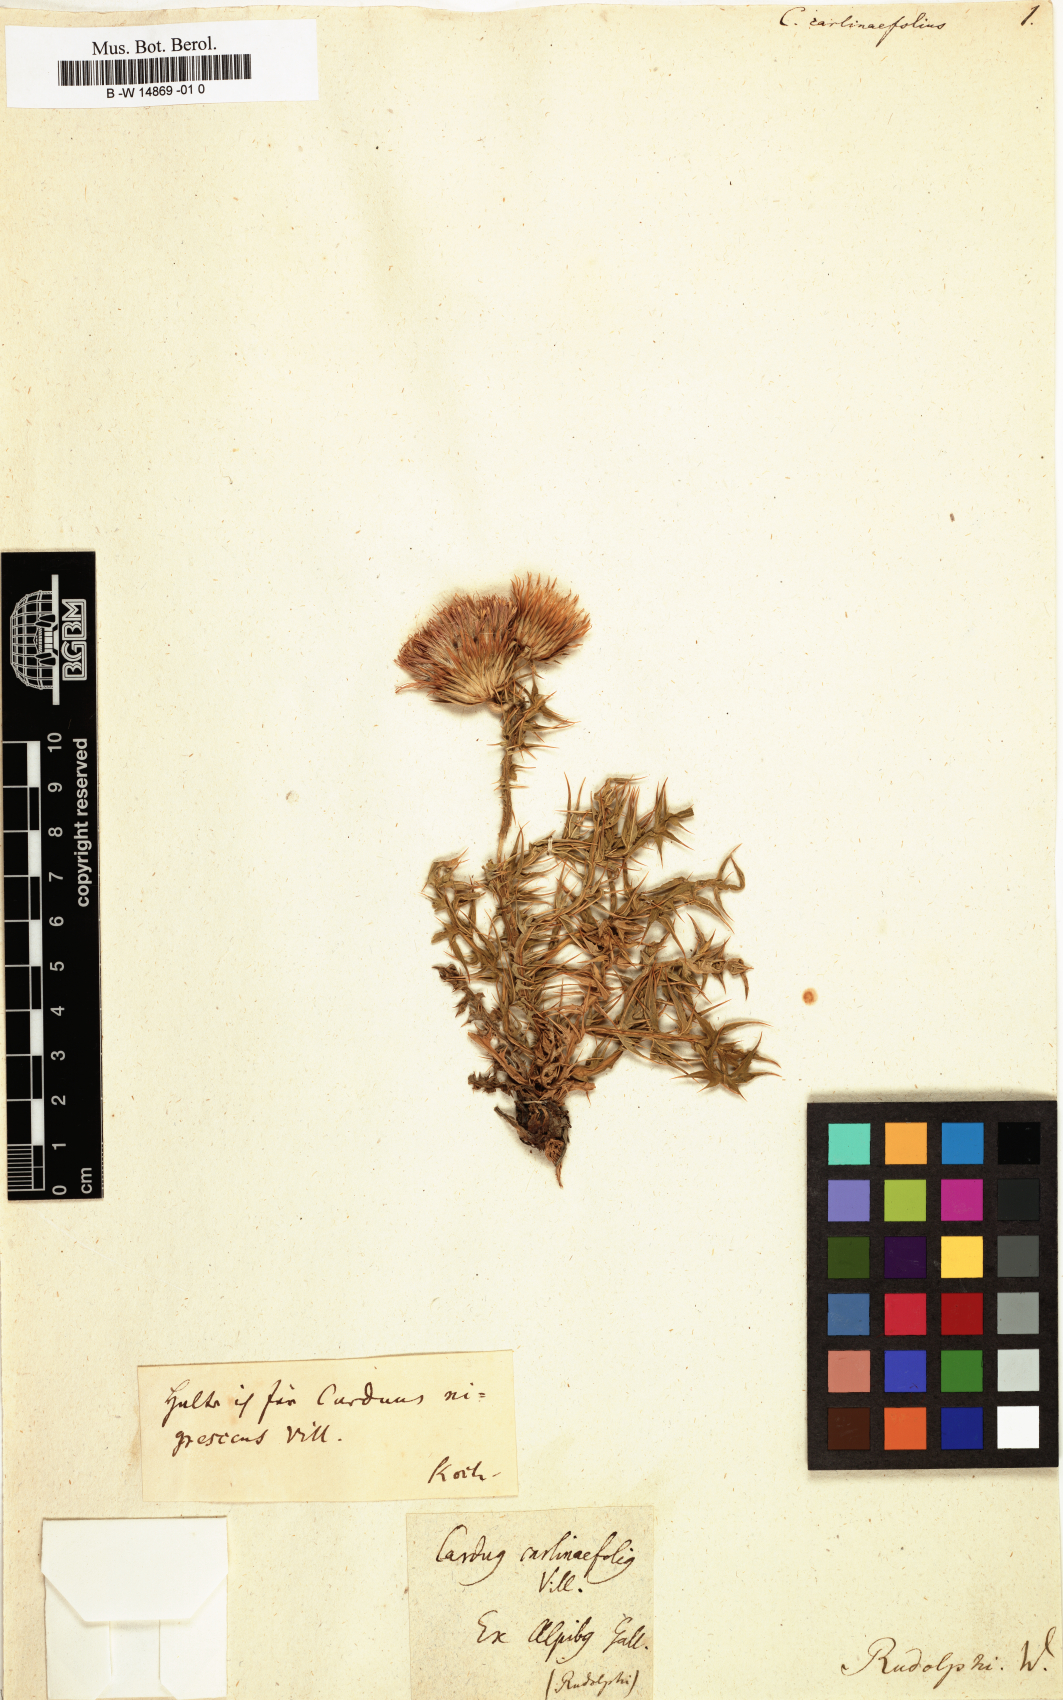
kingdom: Plantae
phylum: Tracheophyta
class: Magnoliopsida
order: Asterales
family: Asteraceae
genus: Carduus
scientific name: Carduus carlinifolius
